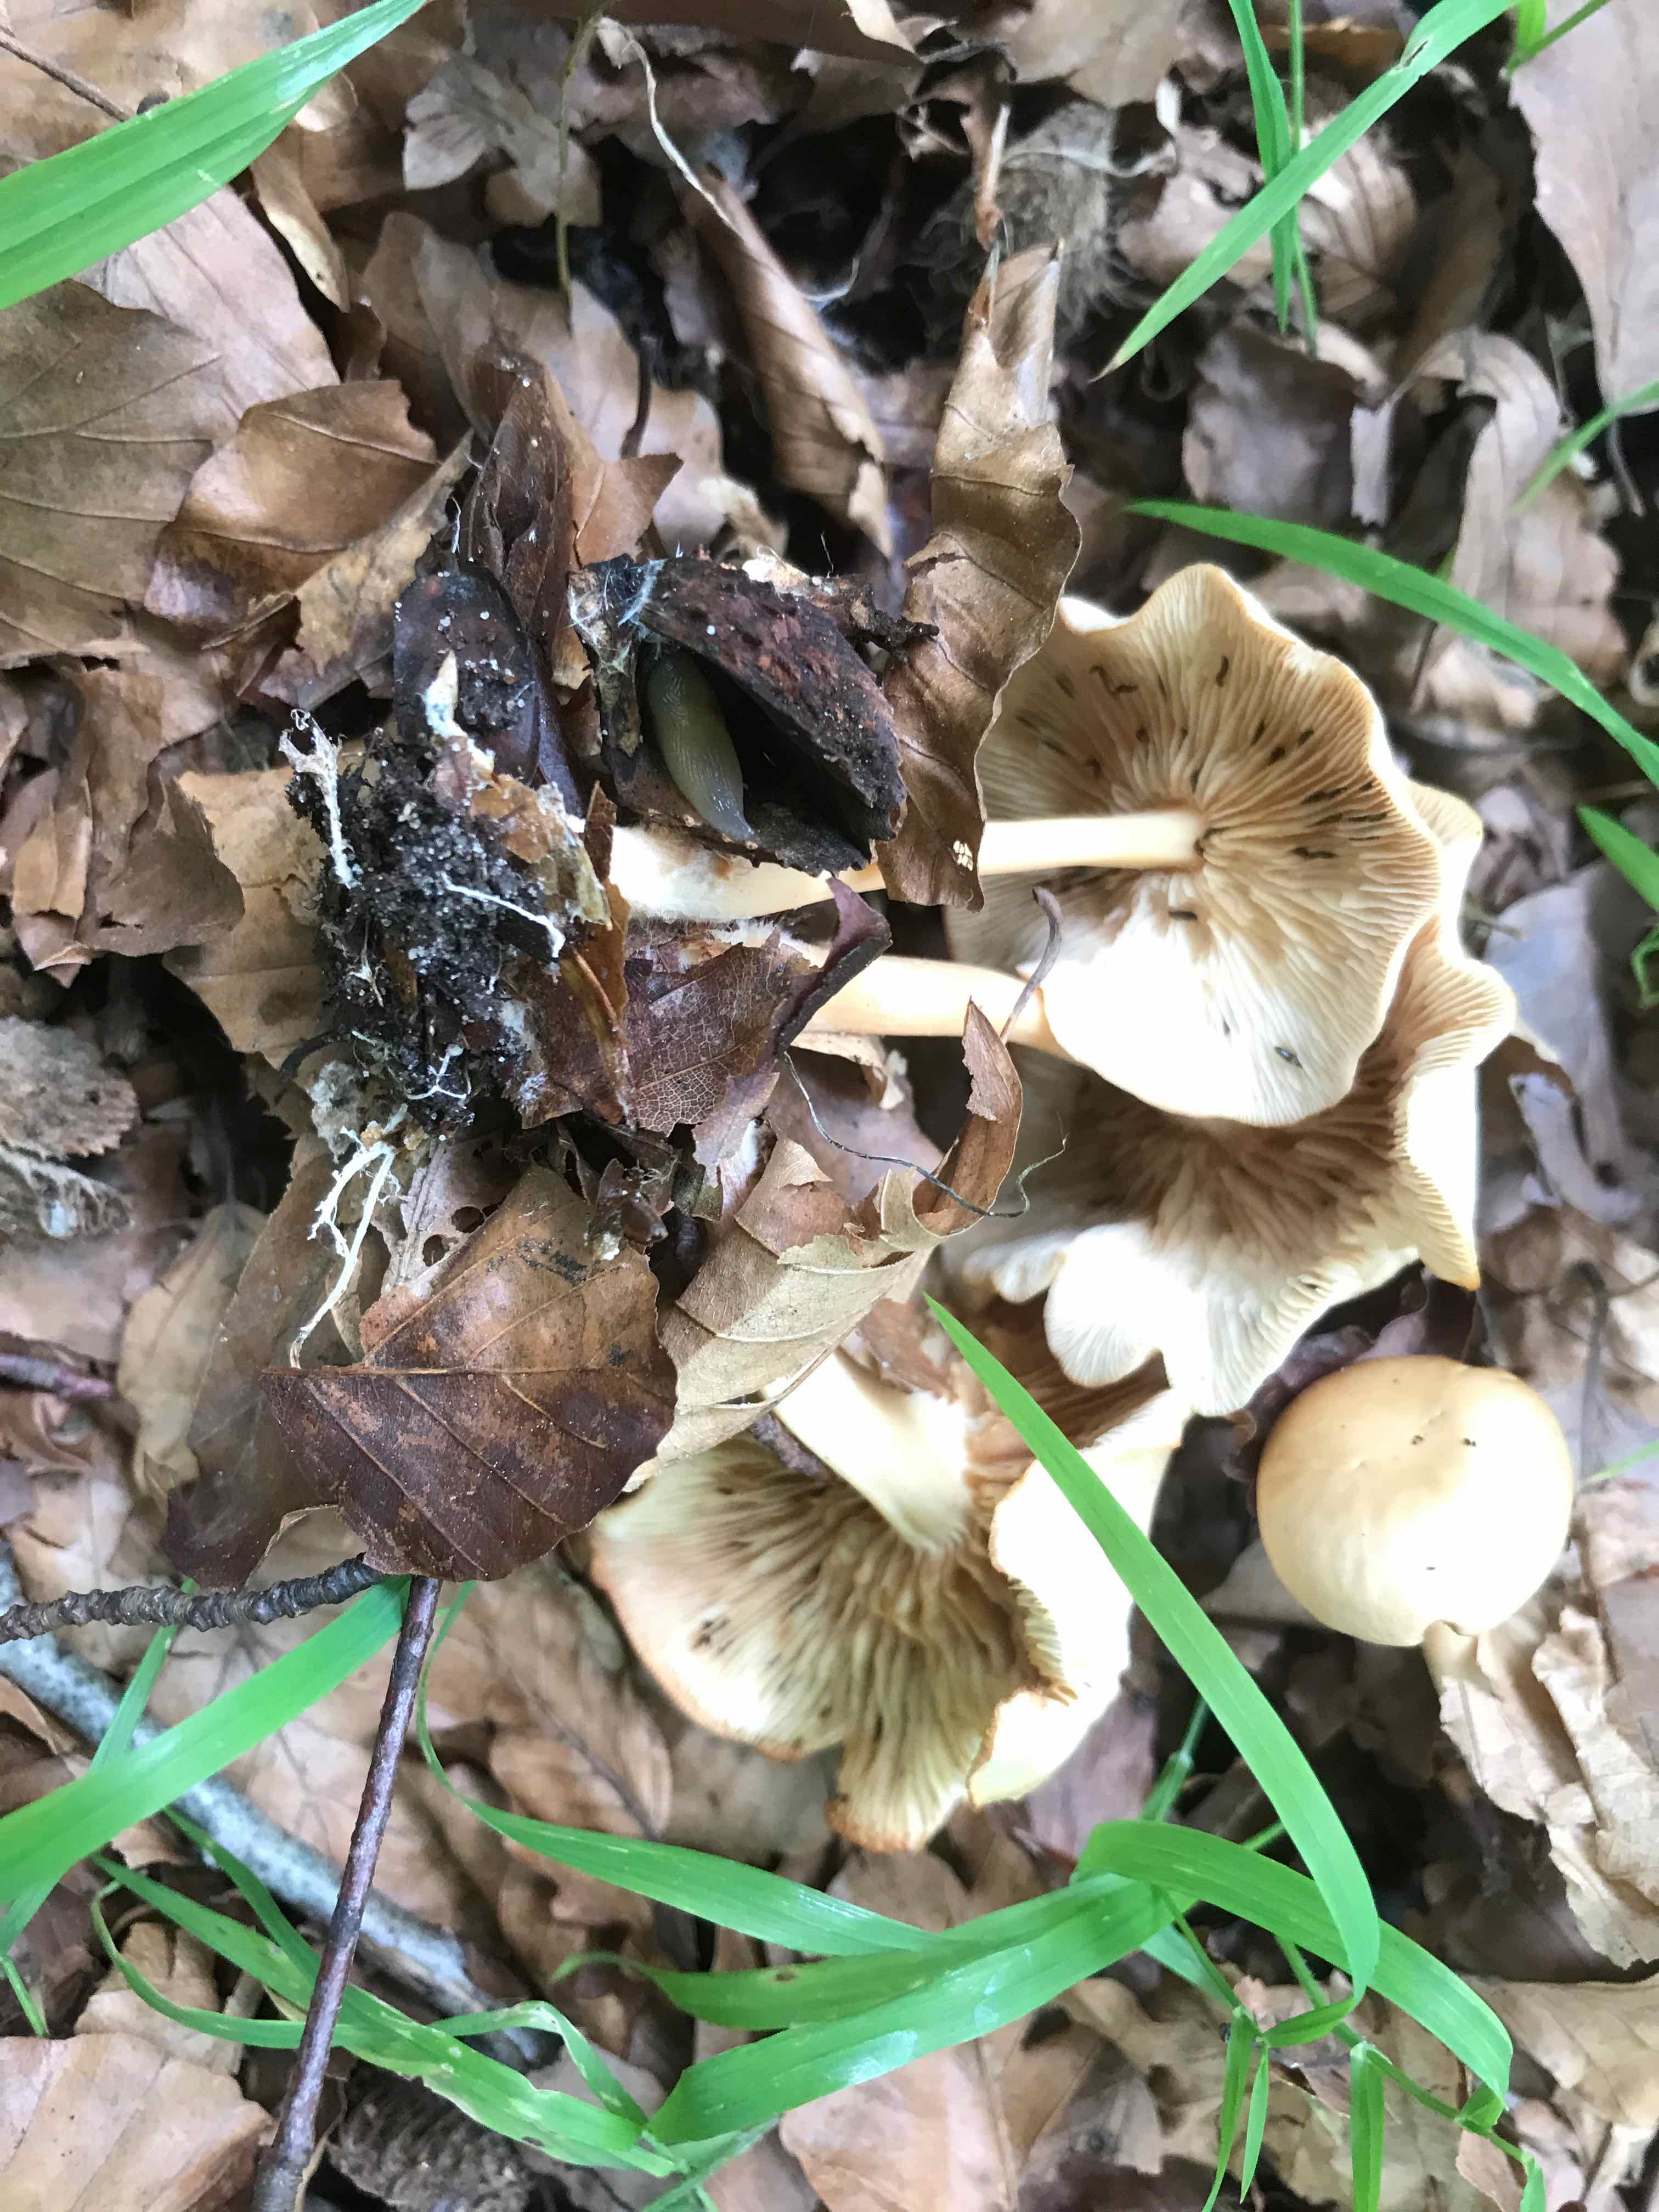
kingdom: Fungi
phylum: Basidiomycota
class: Agaricomycetes
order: Agaricales
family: Omphalotaceae
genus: Gymnopus
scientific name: Gymnopus dryophilus
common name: løv-fladhat
